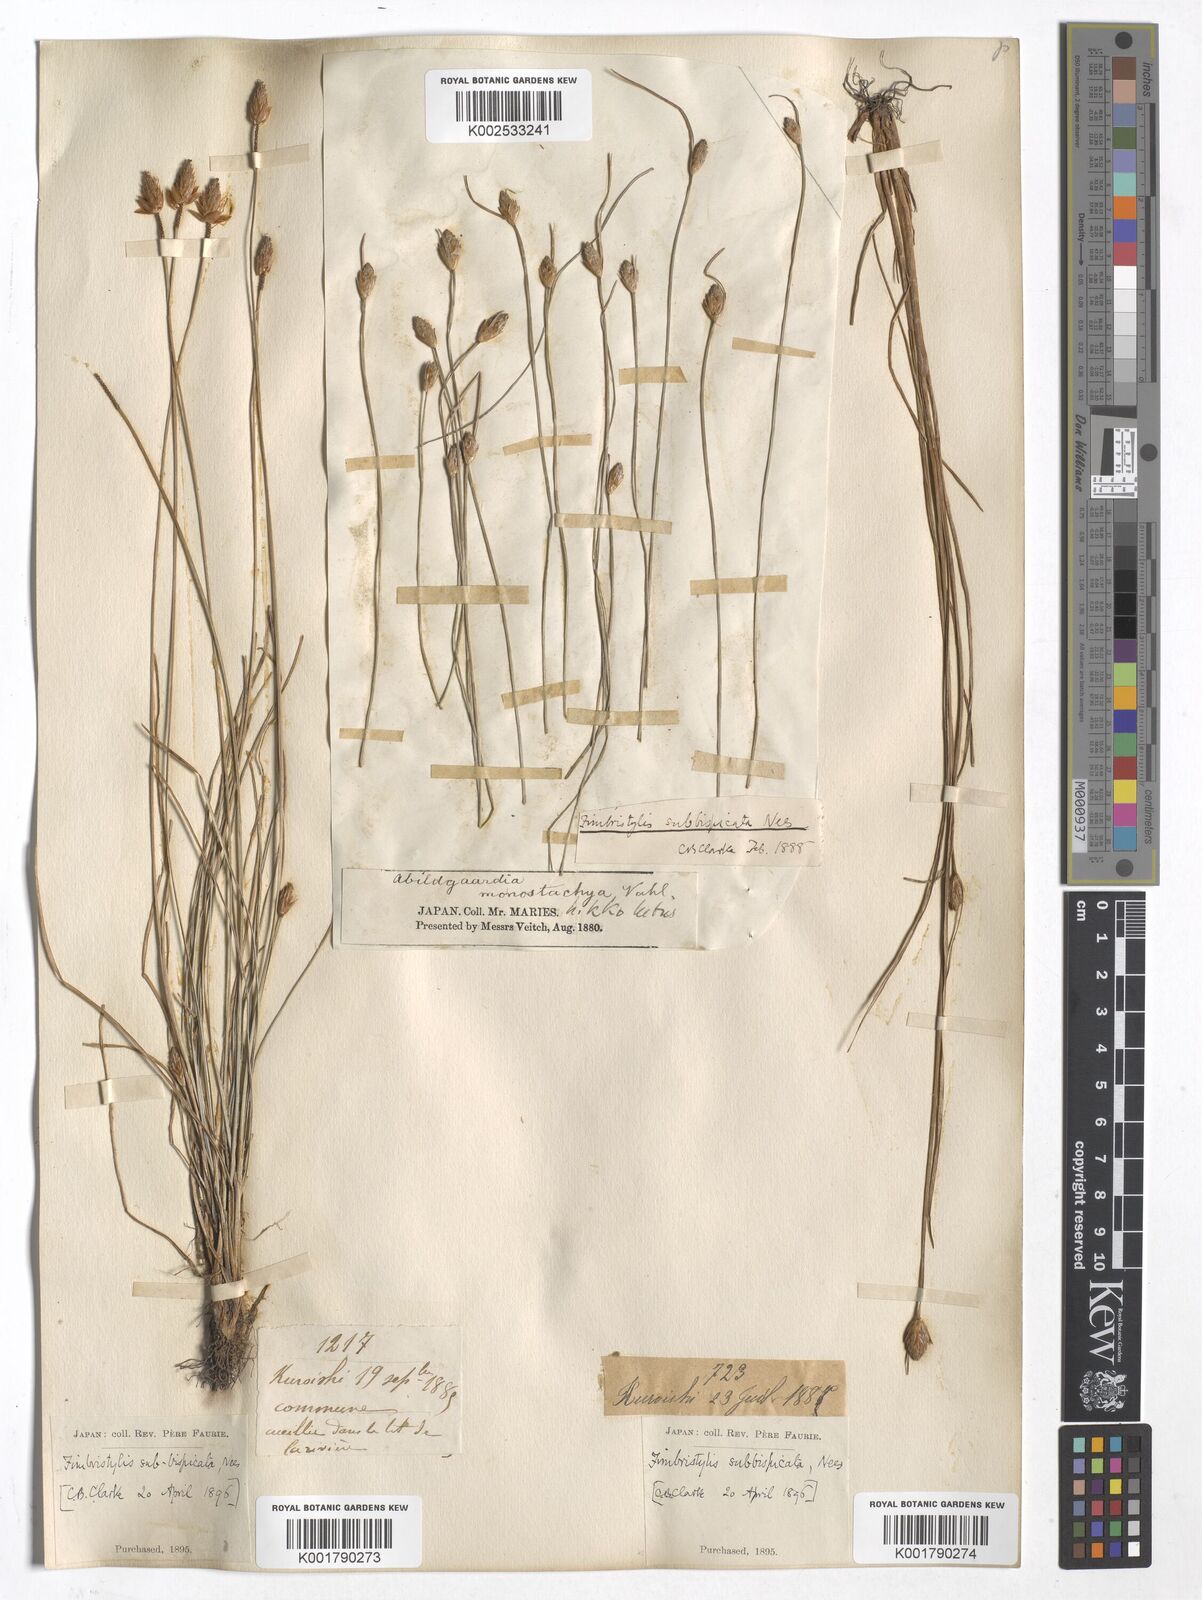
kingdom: Plantae
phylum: Tracheophyta
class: Liliopsida
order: Poales
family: Cyperaceae
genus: Fimbristylis
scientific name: Fimbristylis tristachya
